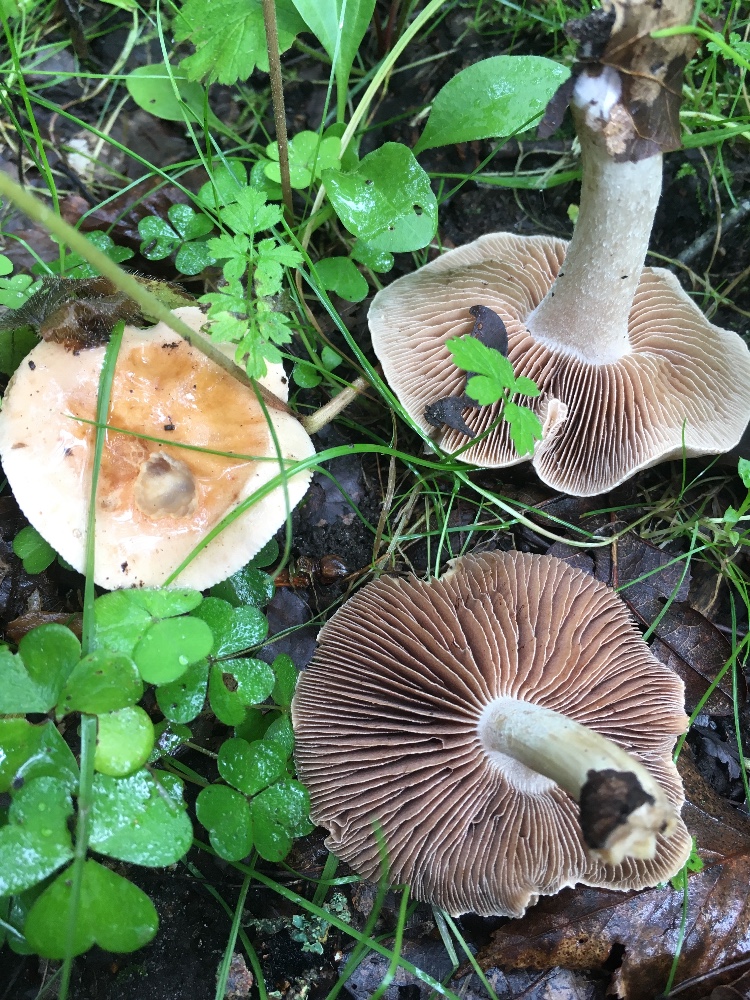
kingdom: Fungi
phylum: Basidiomycota
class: Agaricomycetes
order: Agaricales
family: Hymenogastraceae
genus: Hebeloma
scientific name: Hebeloma
